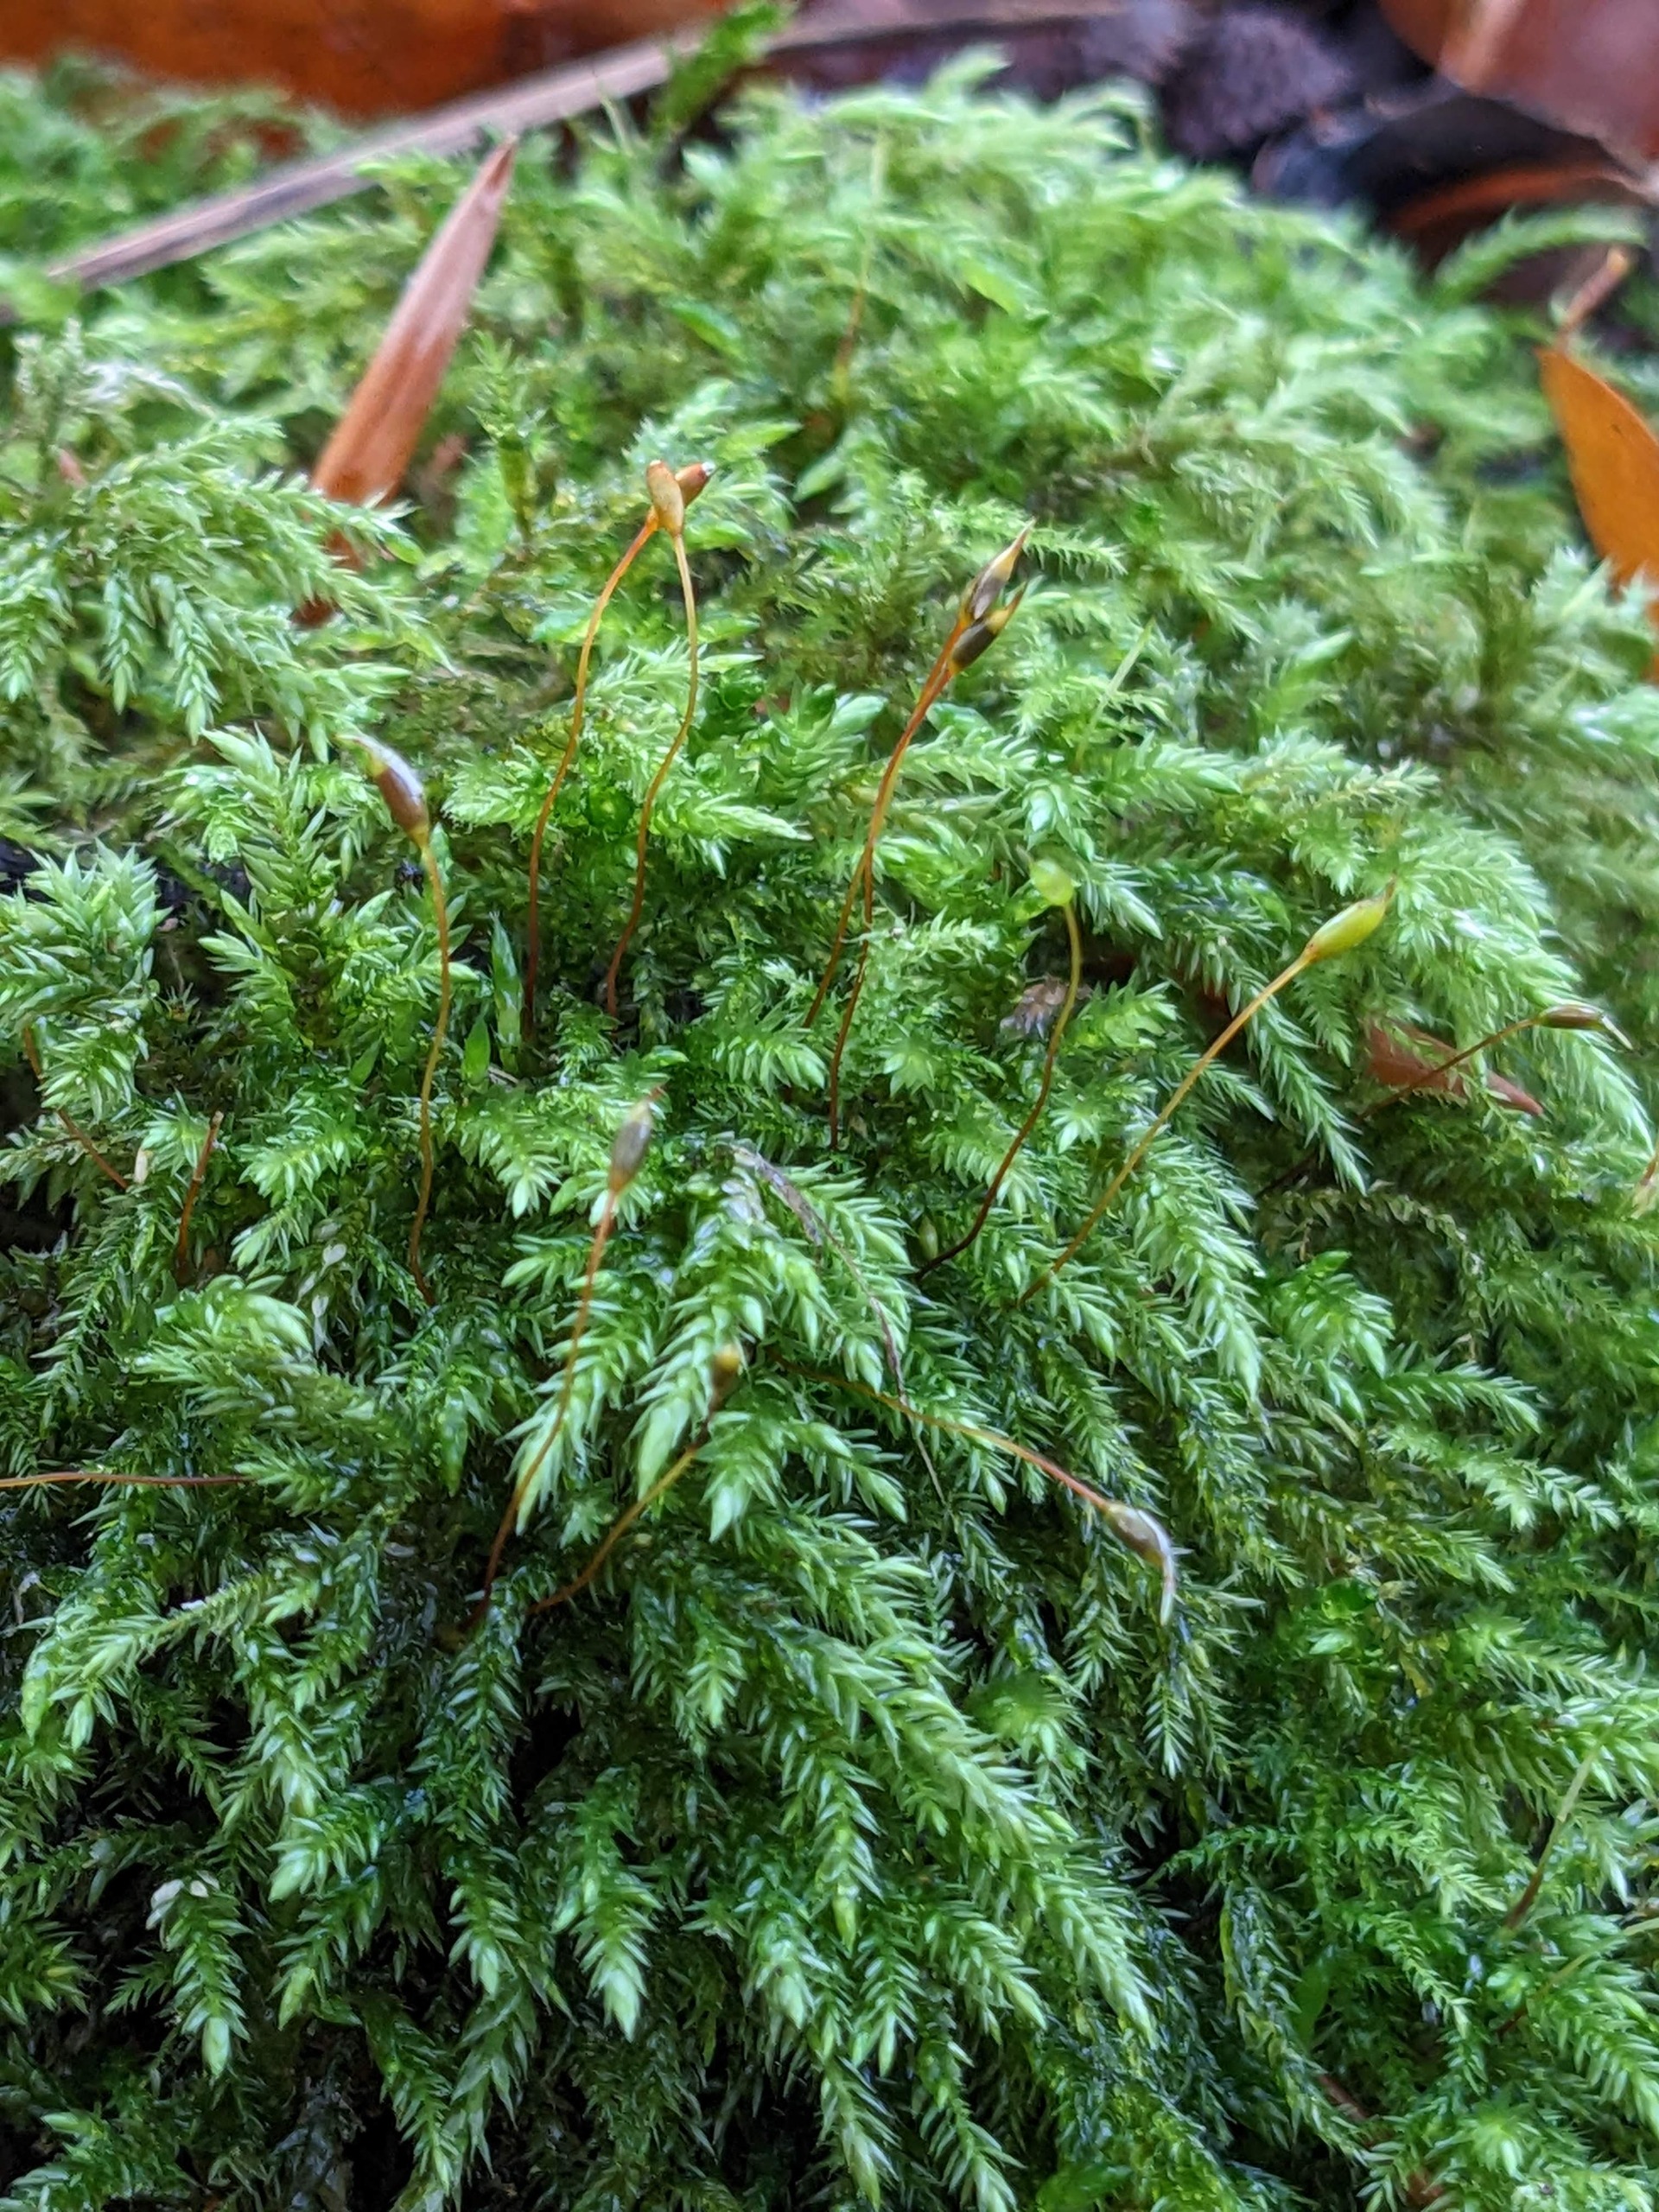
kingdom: Plantae
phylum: Bryophyta
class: Bryopsida
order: Hypnales
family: Lembophyllaceae
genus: Isothecium
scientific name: Isothecium alopecuroides
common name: Stor stammemos
